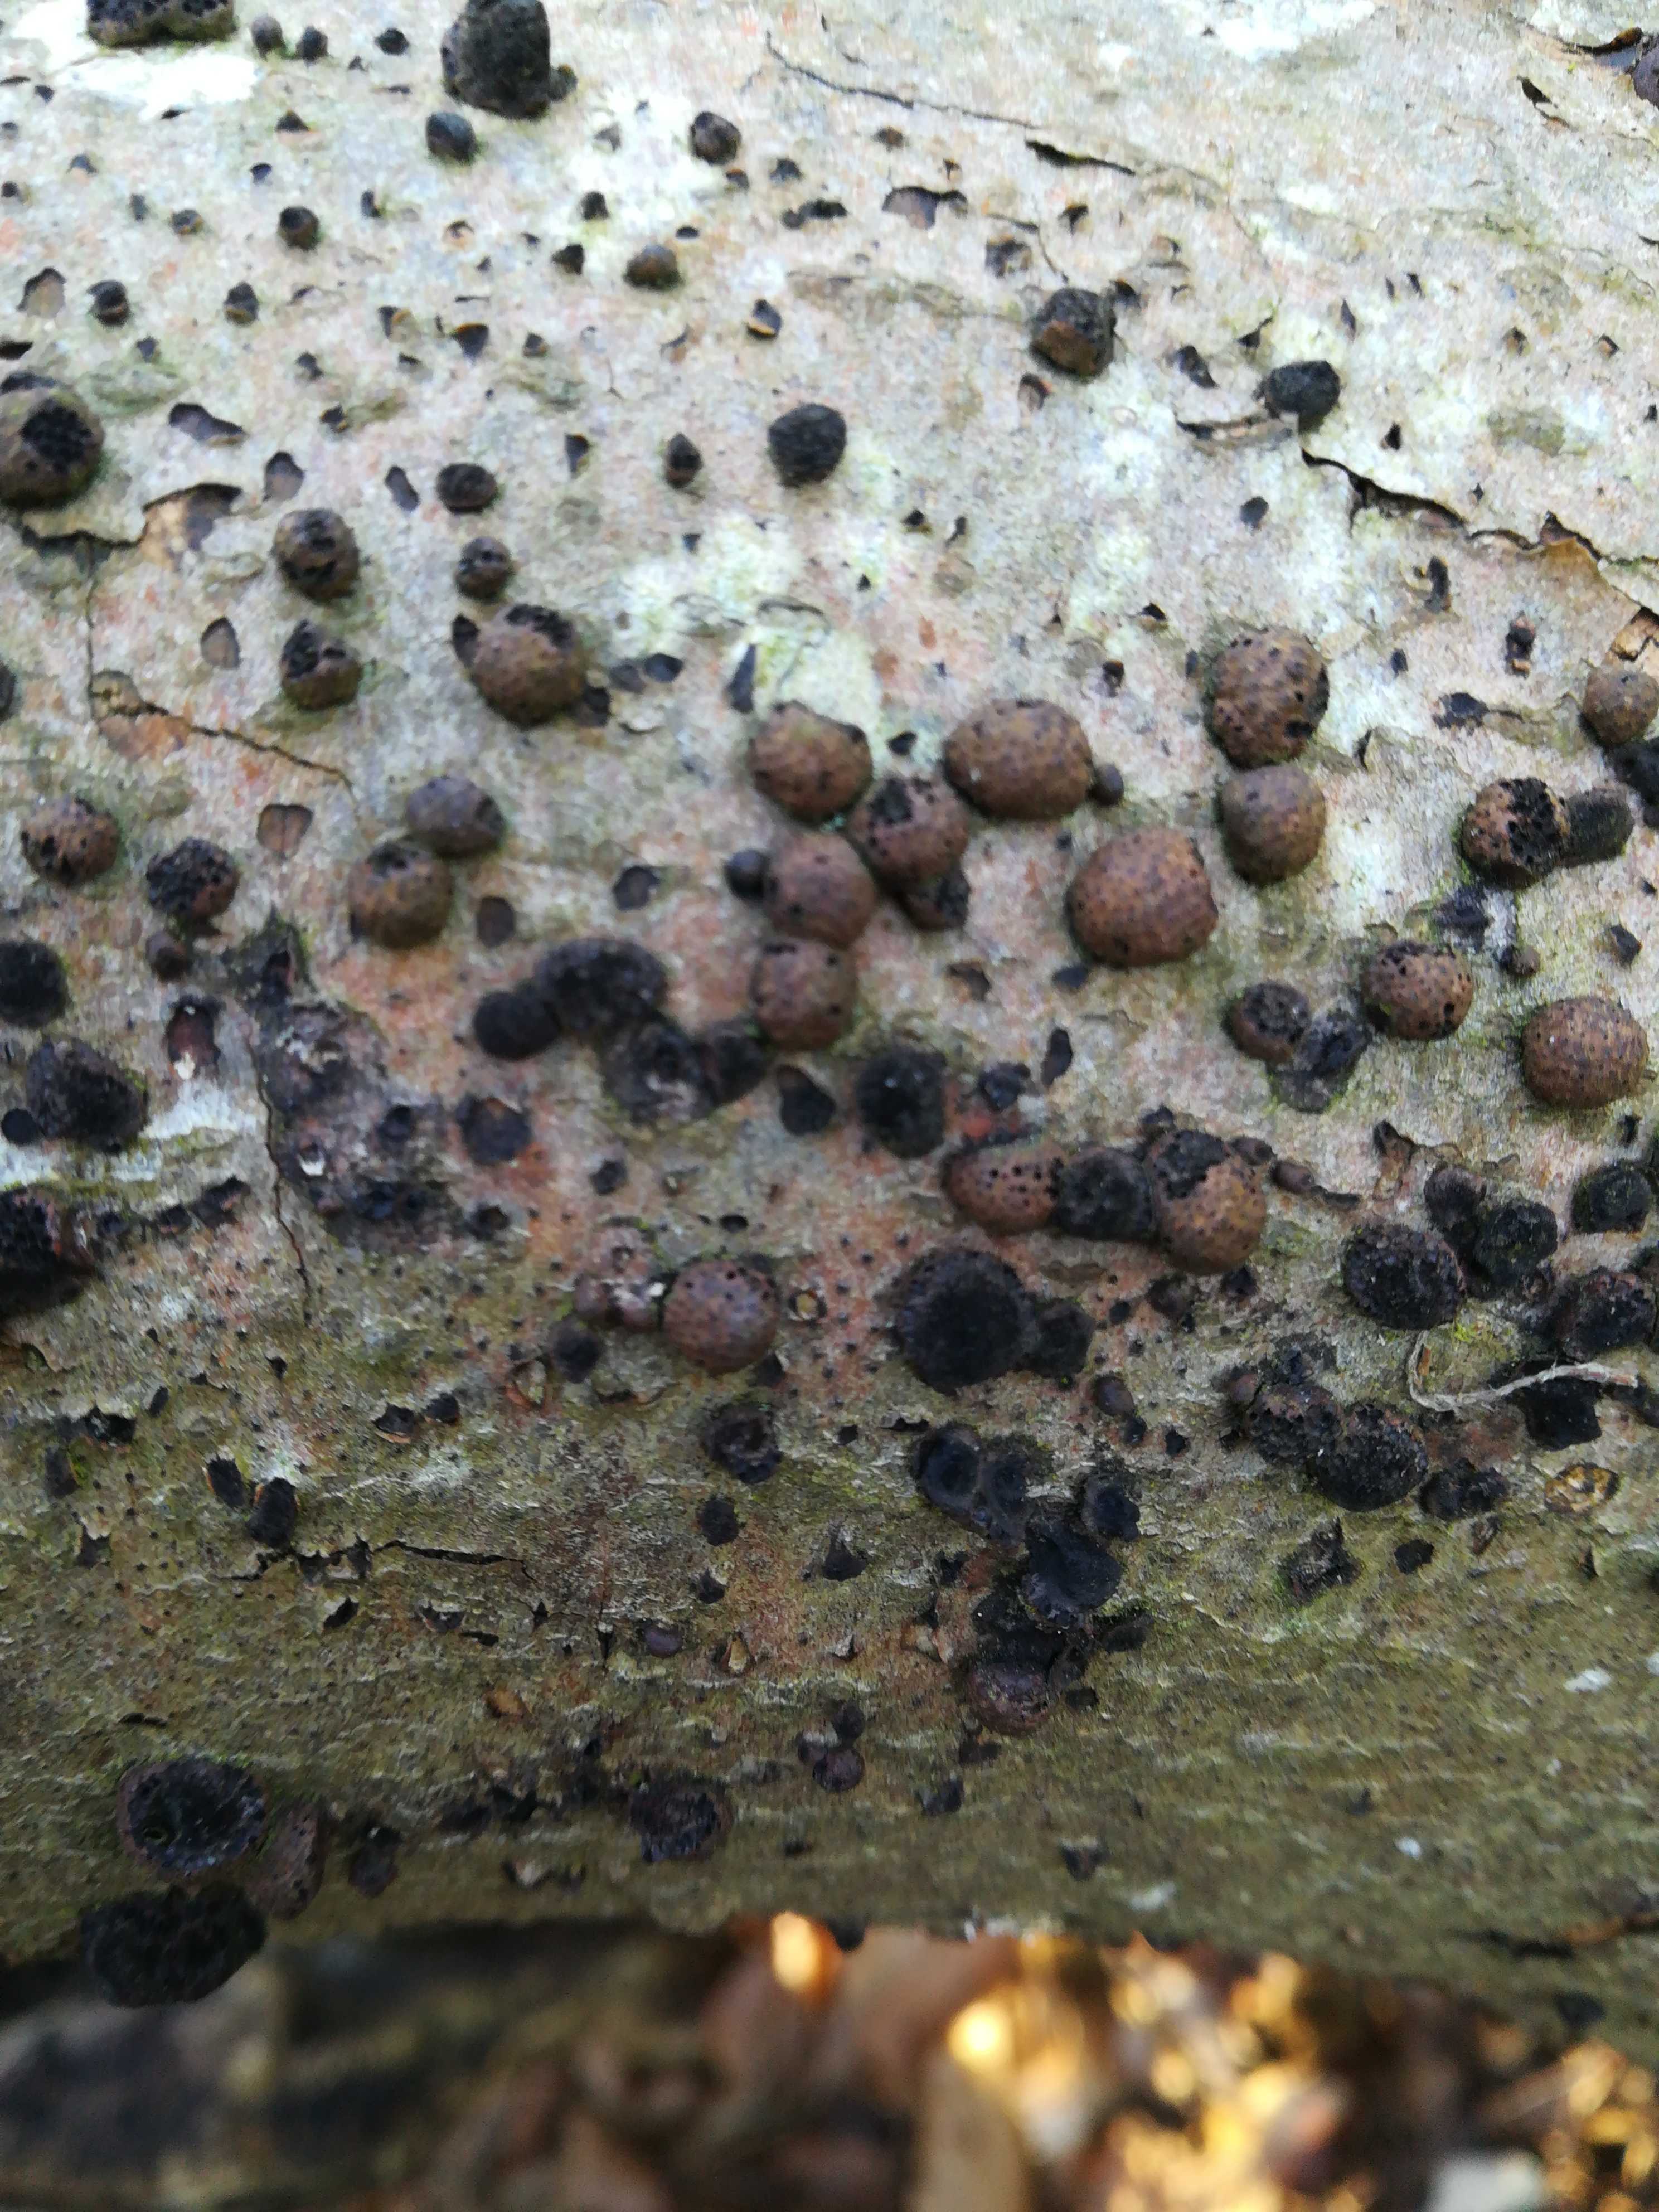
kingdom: Fungi
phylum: Ascomycota
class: Sordariomycetes
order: Xylariales
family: Hypoxylaceae
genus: Hypoxylon
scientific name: Hypoxylon fragiforme
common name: kuljordbær
